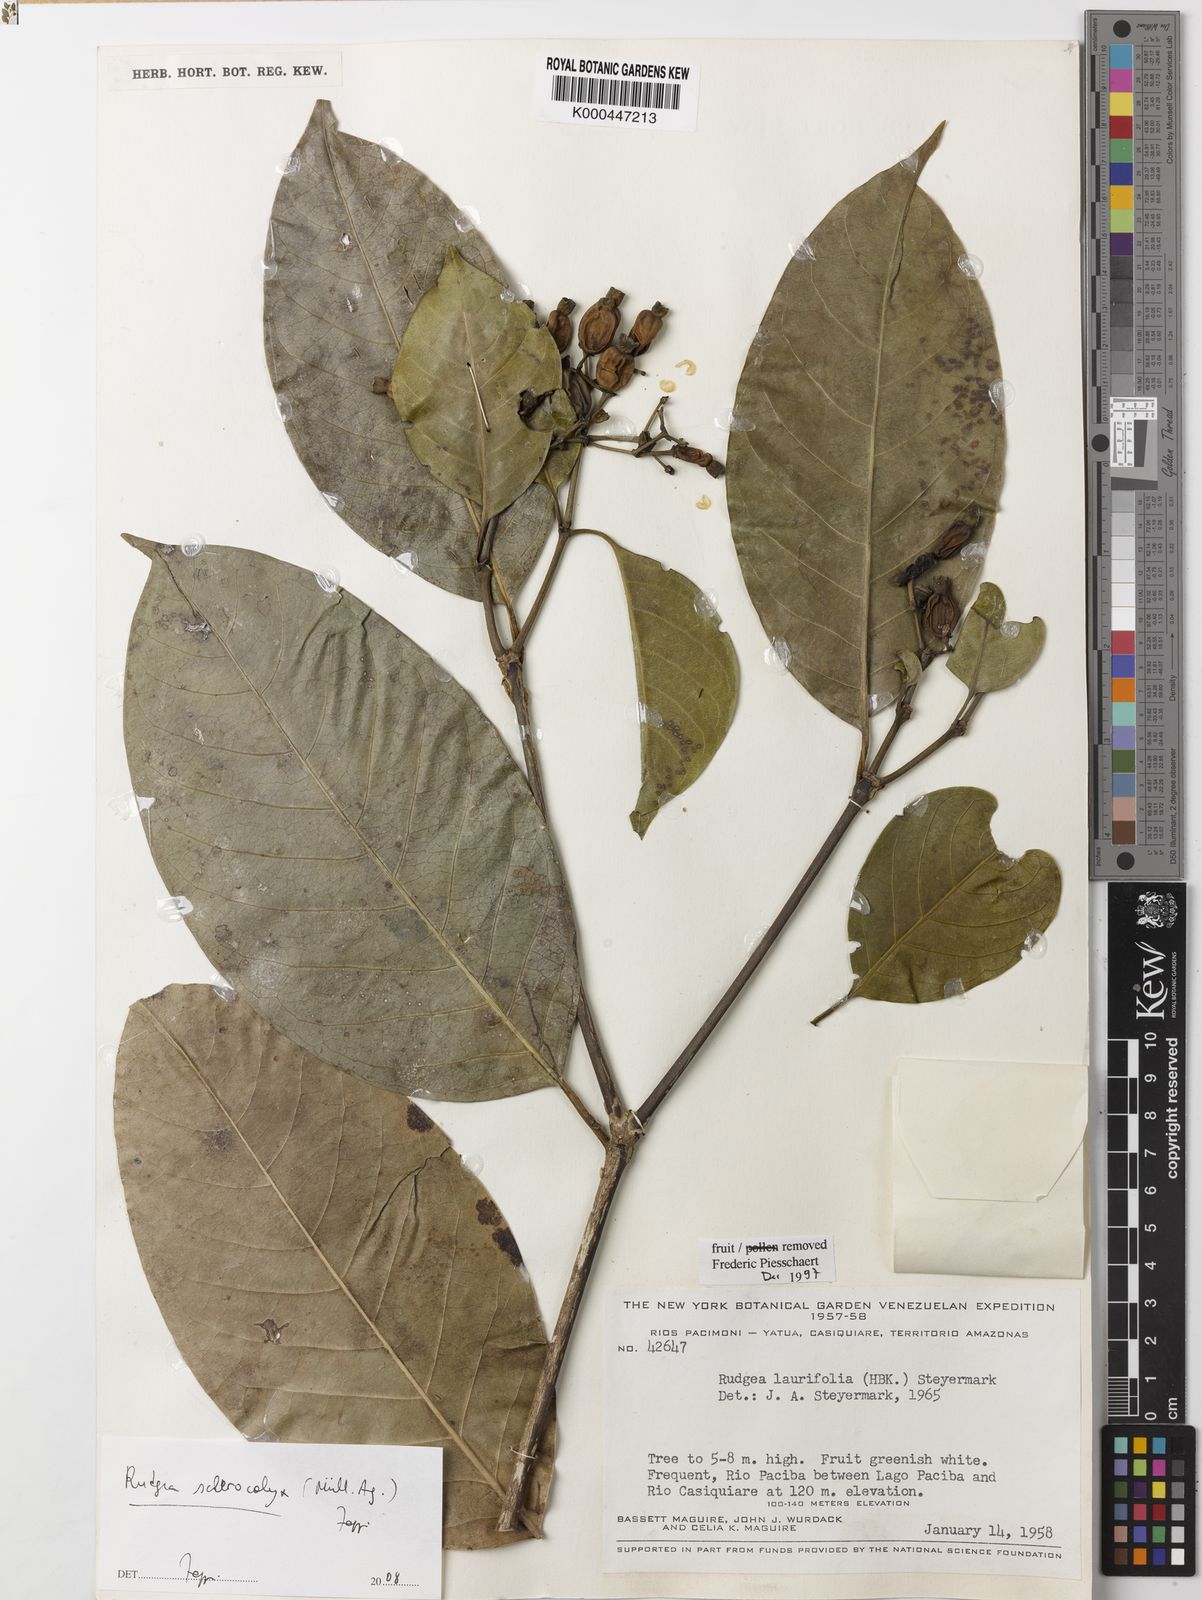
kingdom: Plantae
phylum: Tracheophyta
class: Magnoliopsida
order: Gentianales
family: Rubiaceae
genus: Rudgea
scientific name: Rudgea sclerocalyx
